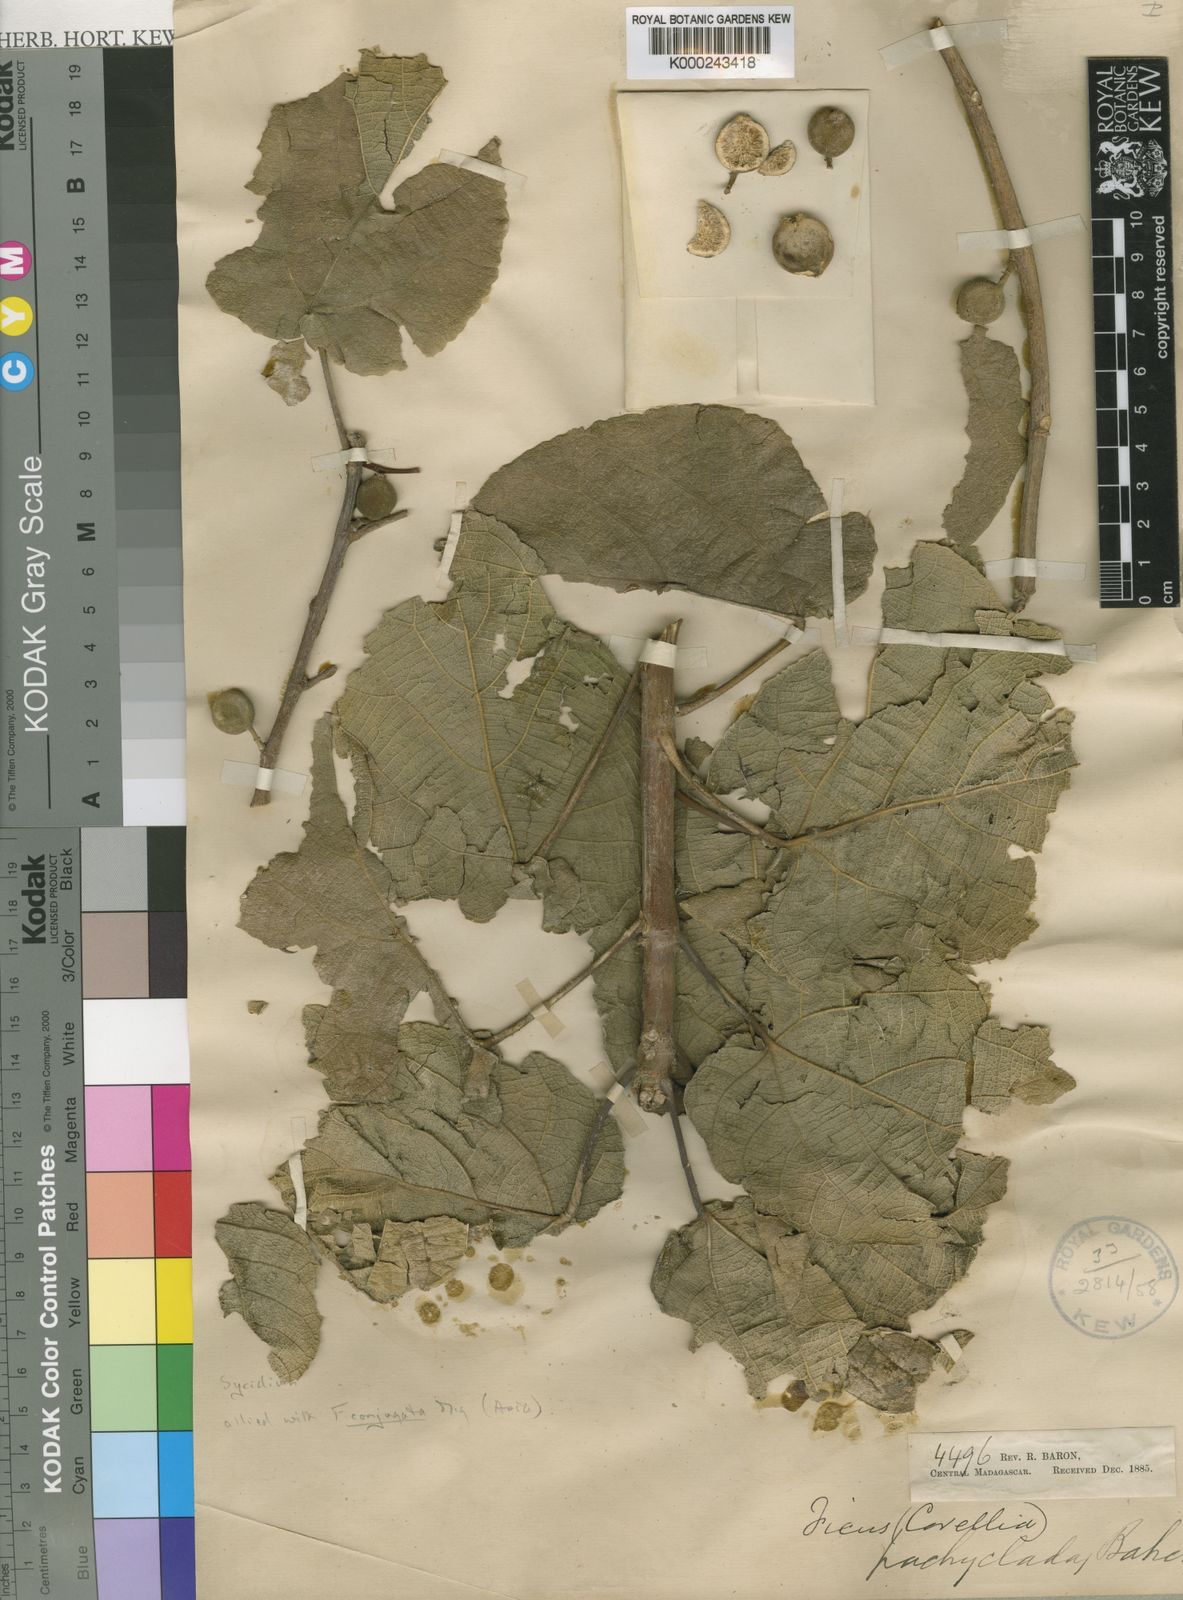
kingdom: Plantae
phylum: Tracheophyta
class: Magnoliopsida
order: Rosales
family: Moraceae
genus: Ficus
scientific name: Ficus pachyclada
